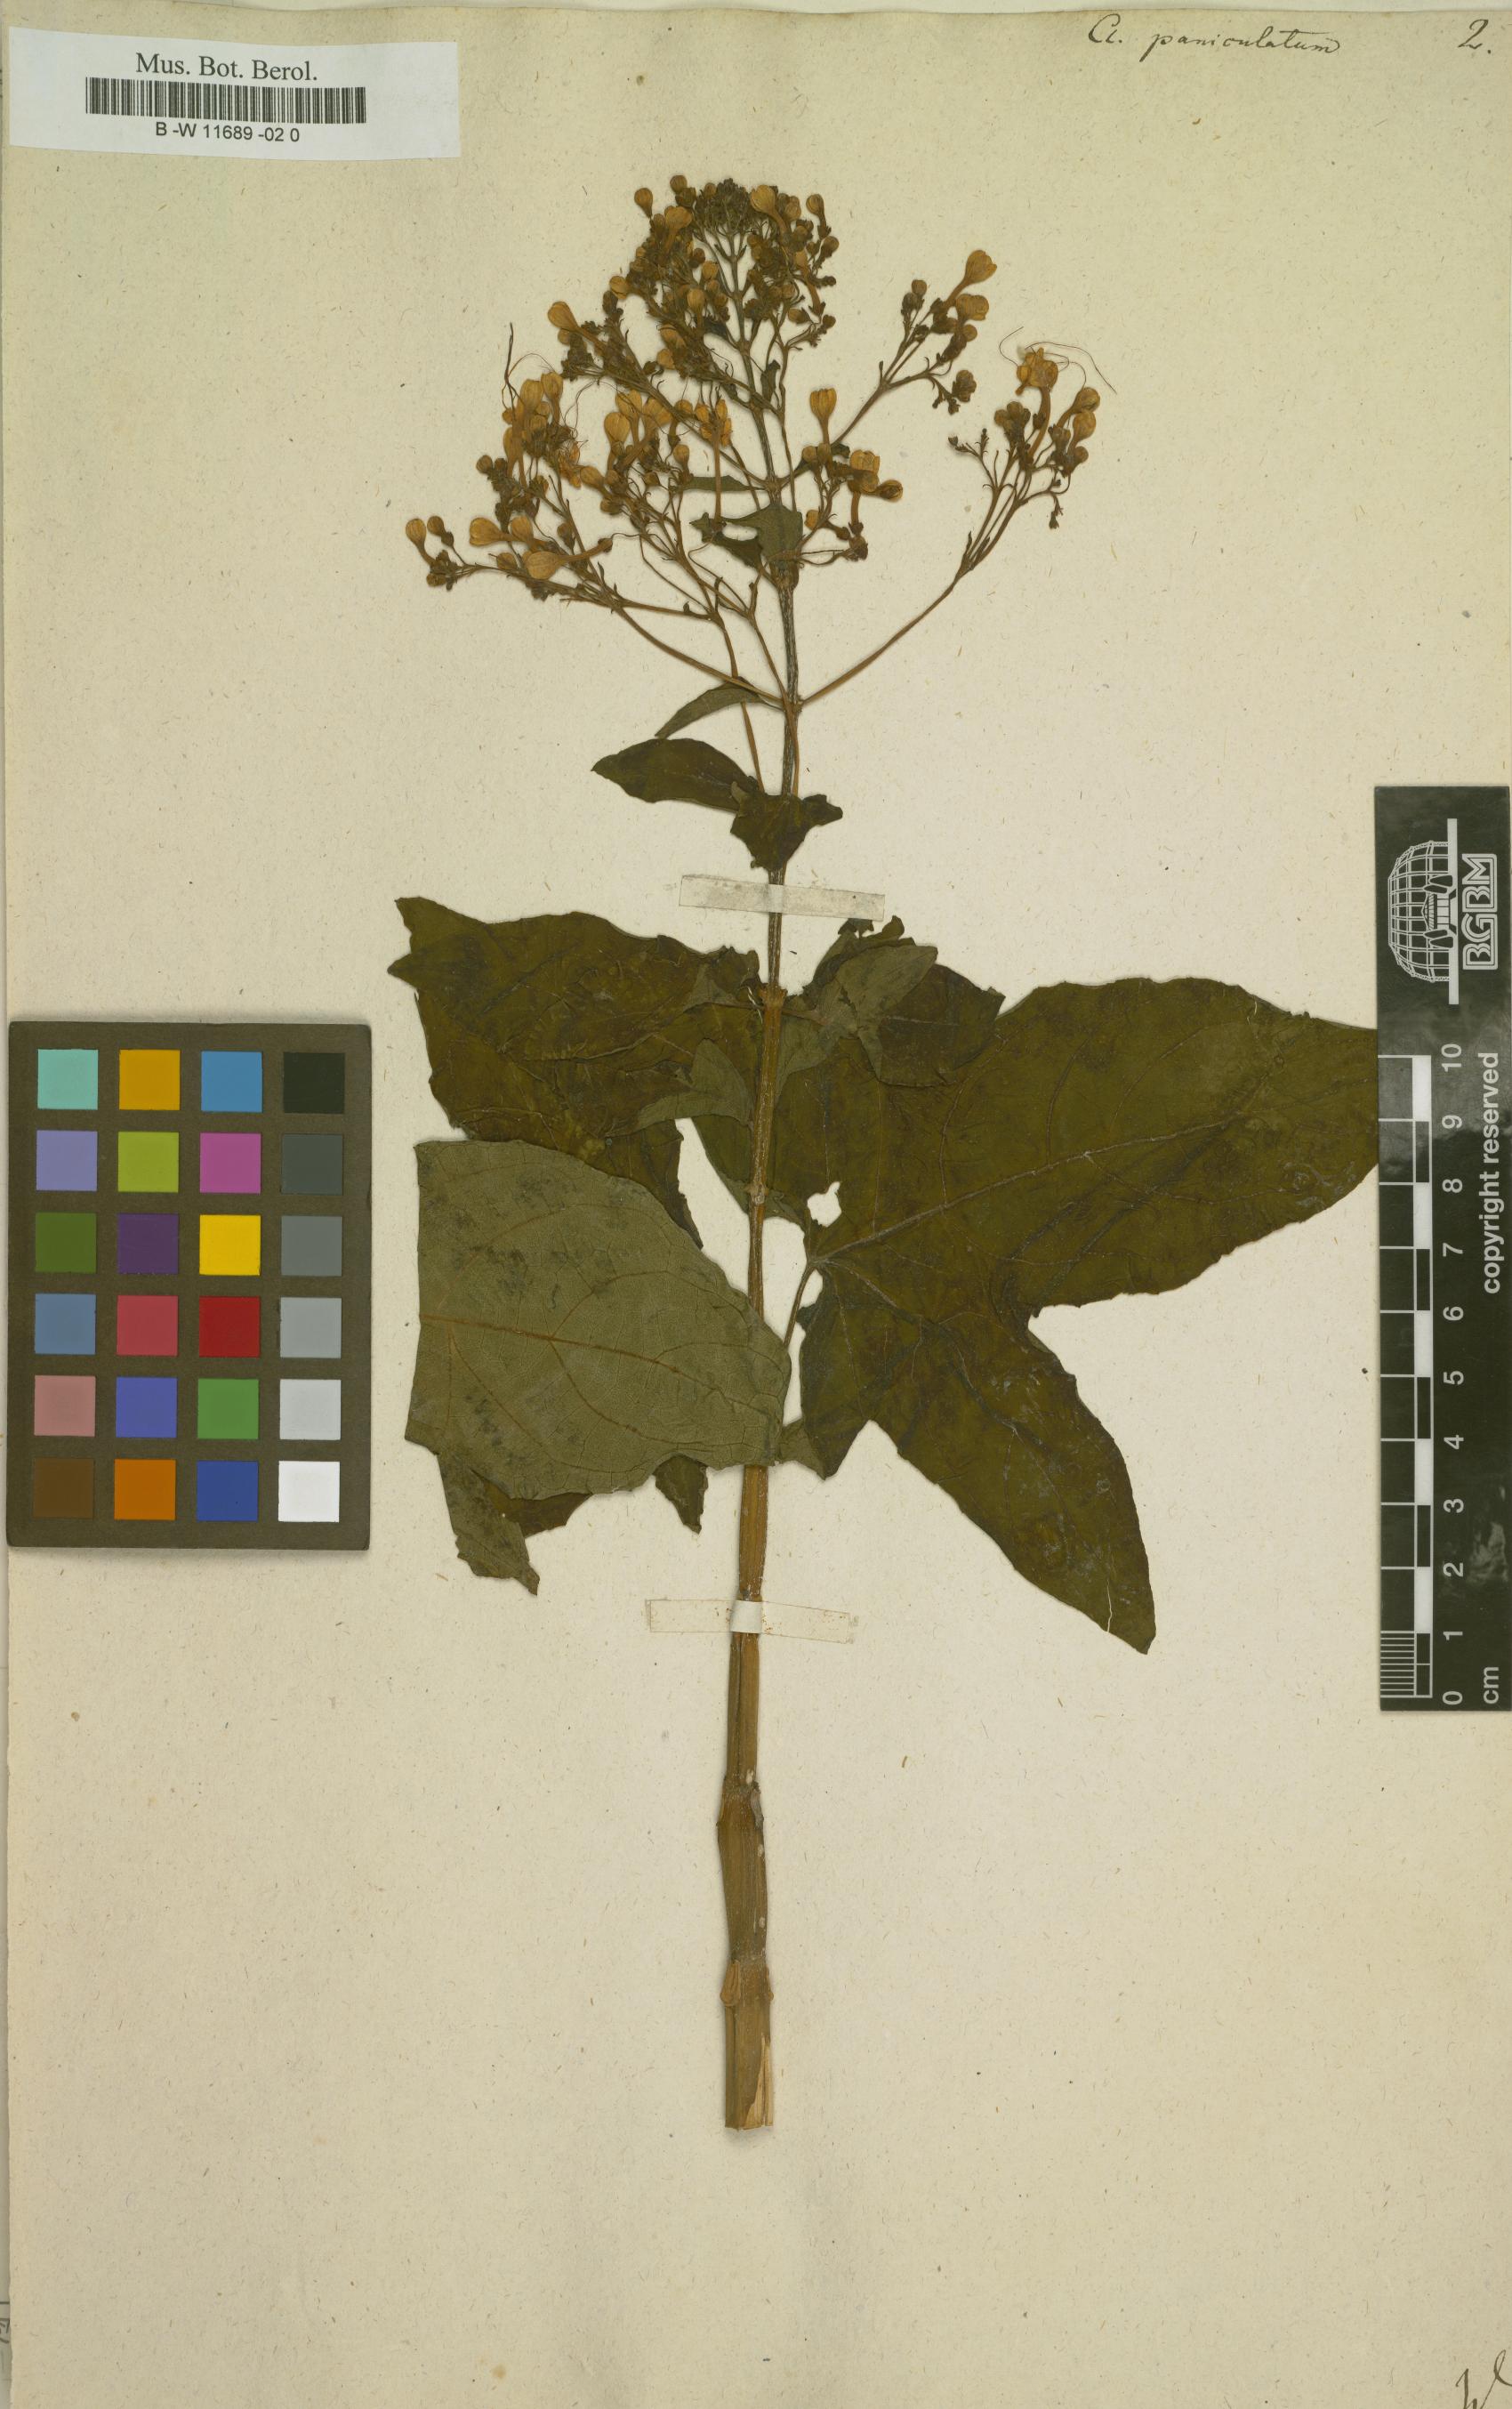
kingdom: Plantae
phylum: Tracheophyta
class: Magnoliopsida
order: Lamiales
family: Lamiaceae
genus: Clerodendrum
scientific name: Clerodendrum paniculatum
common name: Pagoda-flower
